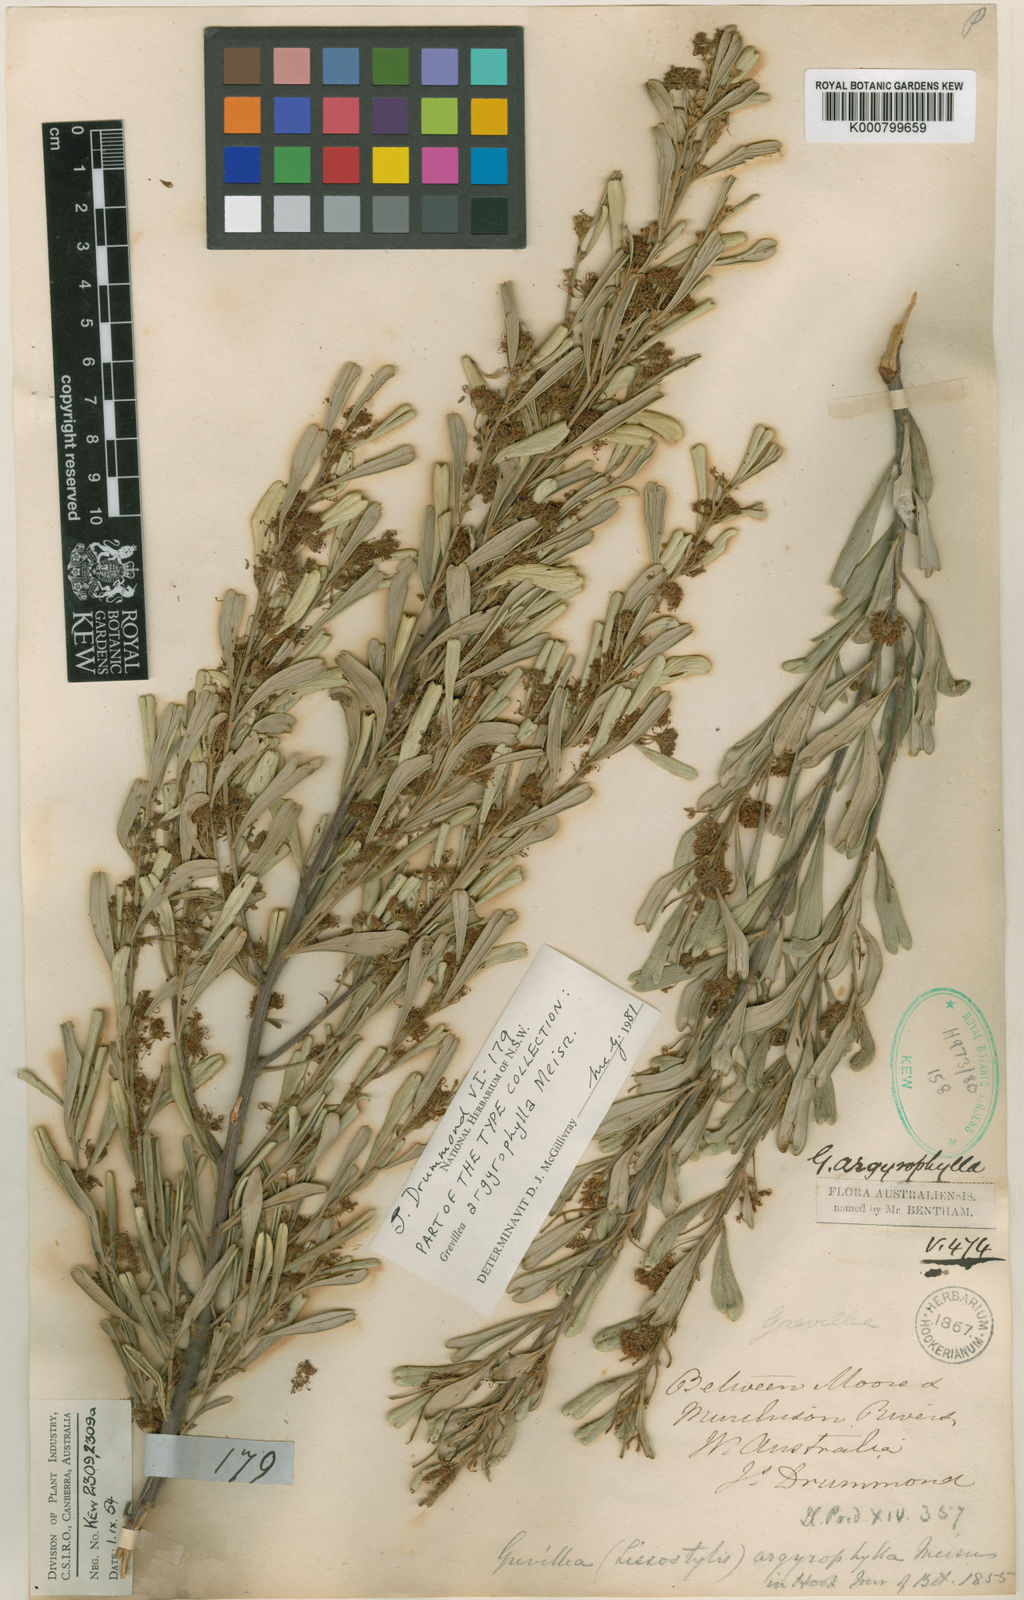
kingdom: Plantae
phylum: Tracheophyta
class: Magnoliopsida
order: Proteales
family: Proteaceae
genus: Grevillea
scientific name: Grevillea argyrophylla
